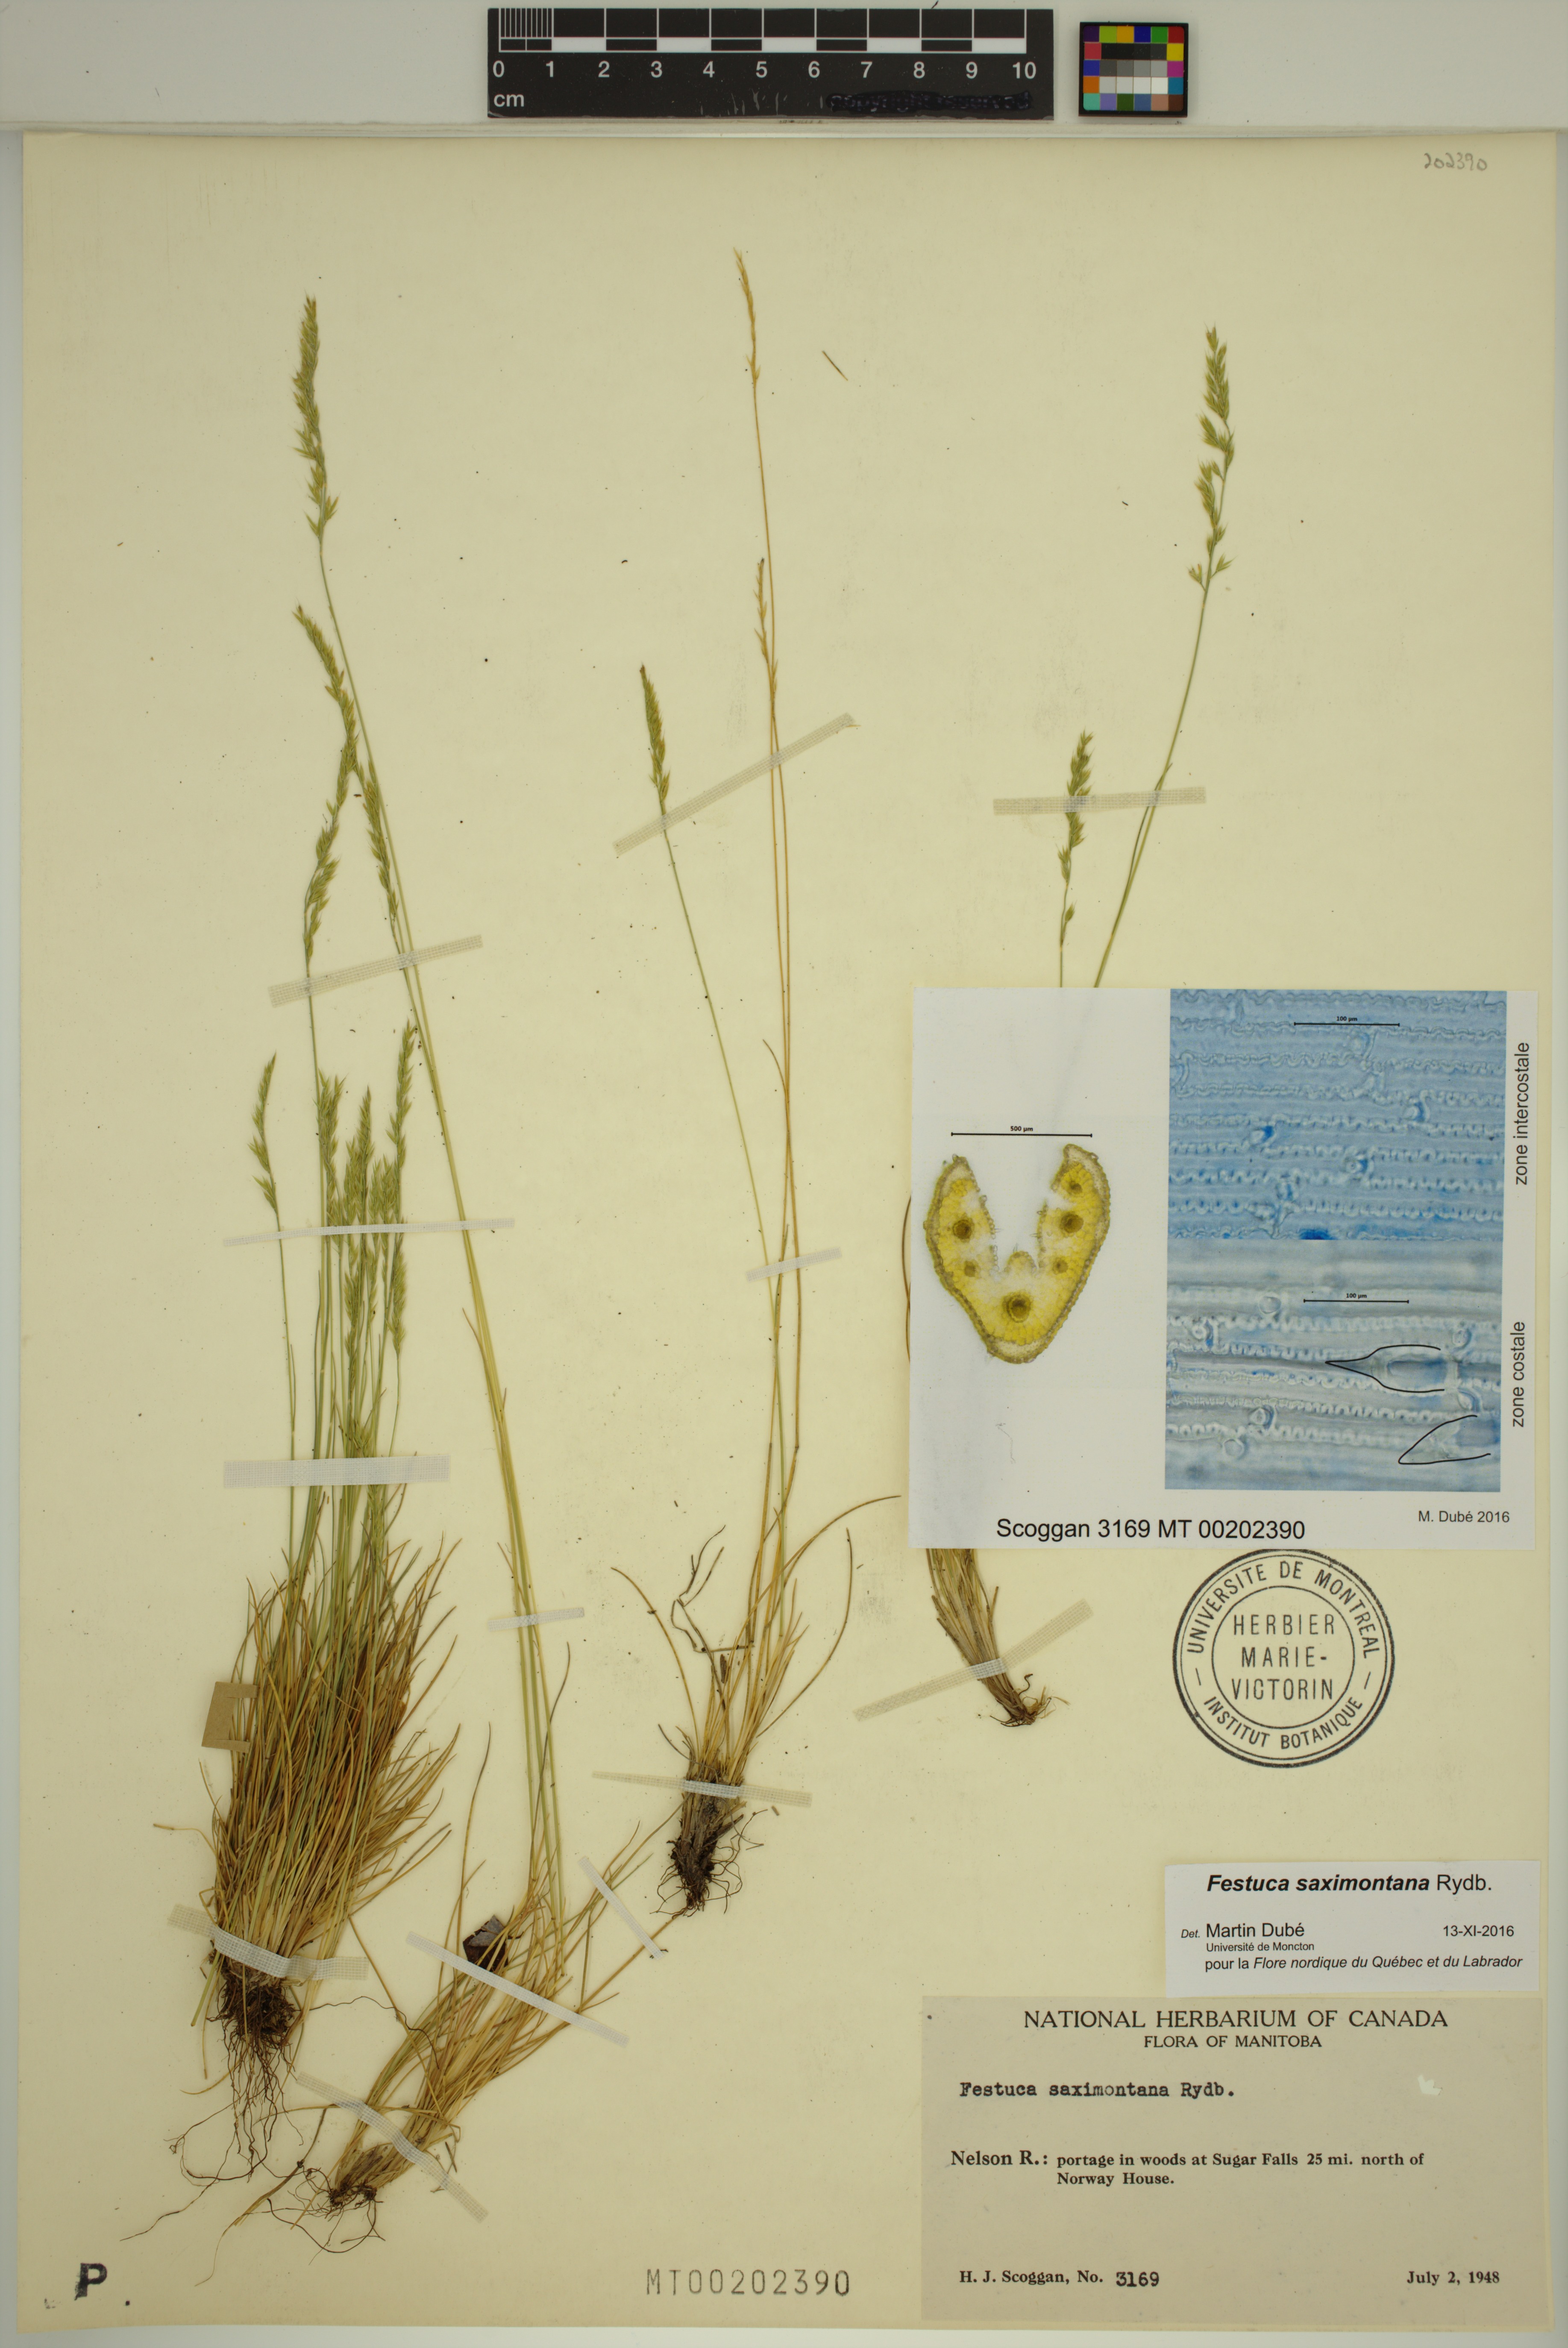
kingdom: Plantae
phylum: Tracheophyta
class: Liliopsida
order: Poales
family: Poaceae
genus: Festuca
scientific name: Festuca saximontana
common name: Mountain fescue
